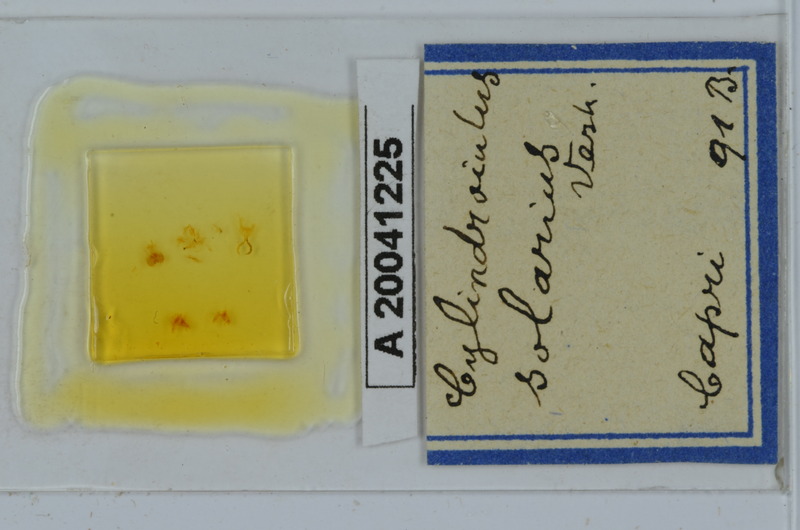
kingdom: Animalia
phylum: Arthropoda
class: Diplopoda
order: Julida
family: Julidae
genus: Cylindroiulus
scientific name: Cylindroiulus solarius
